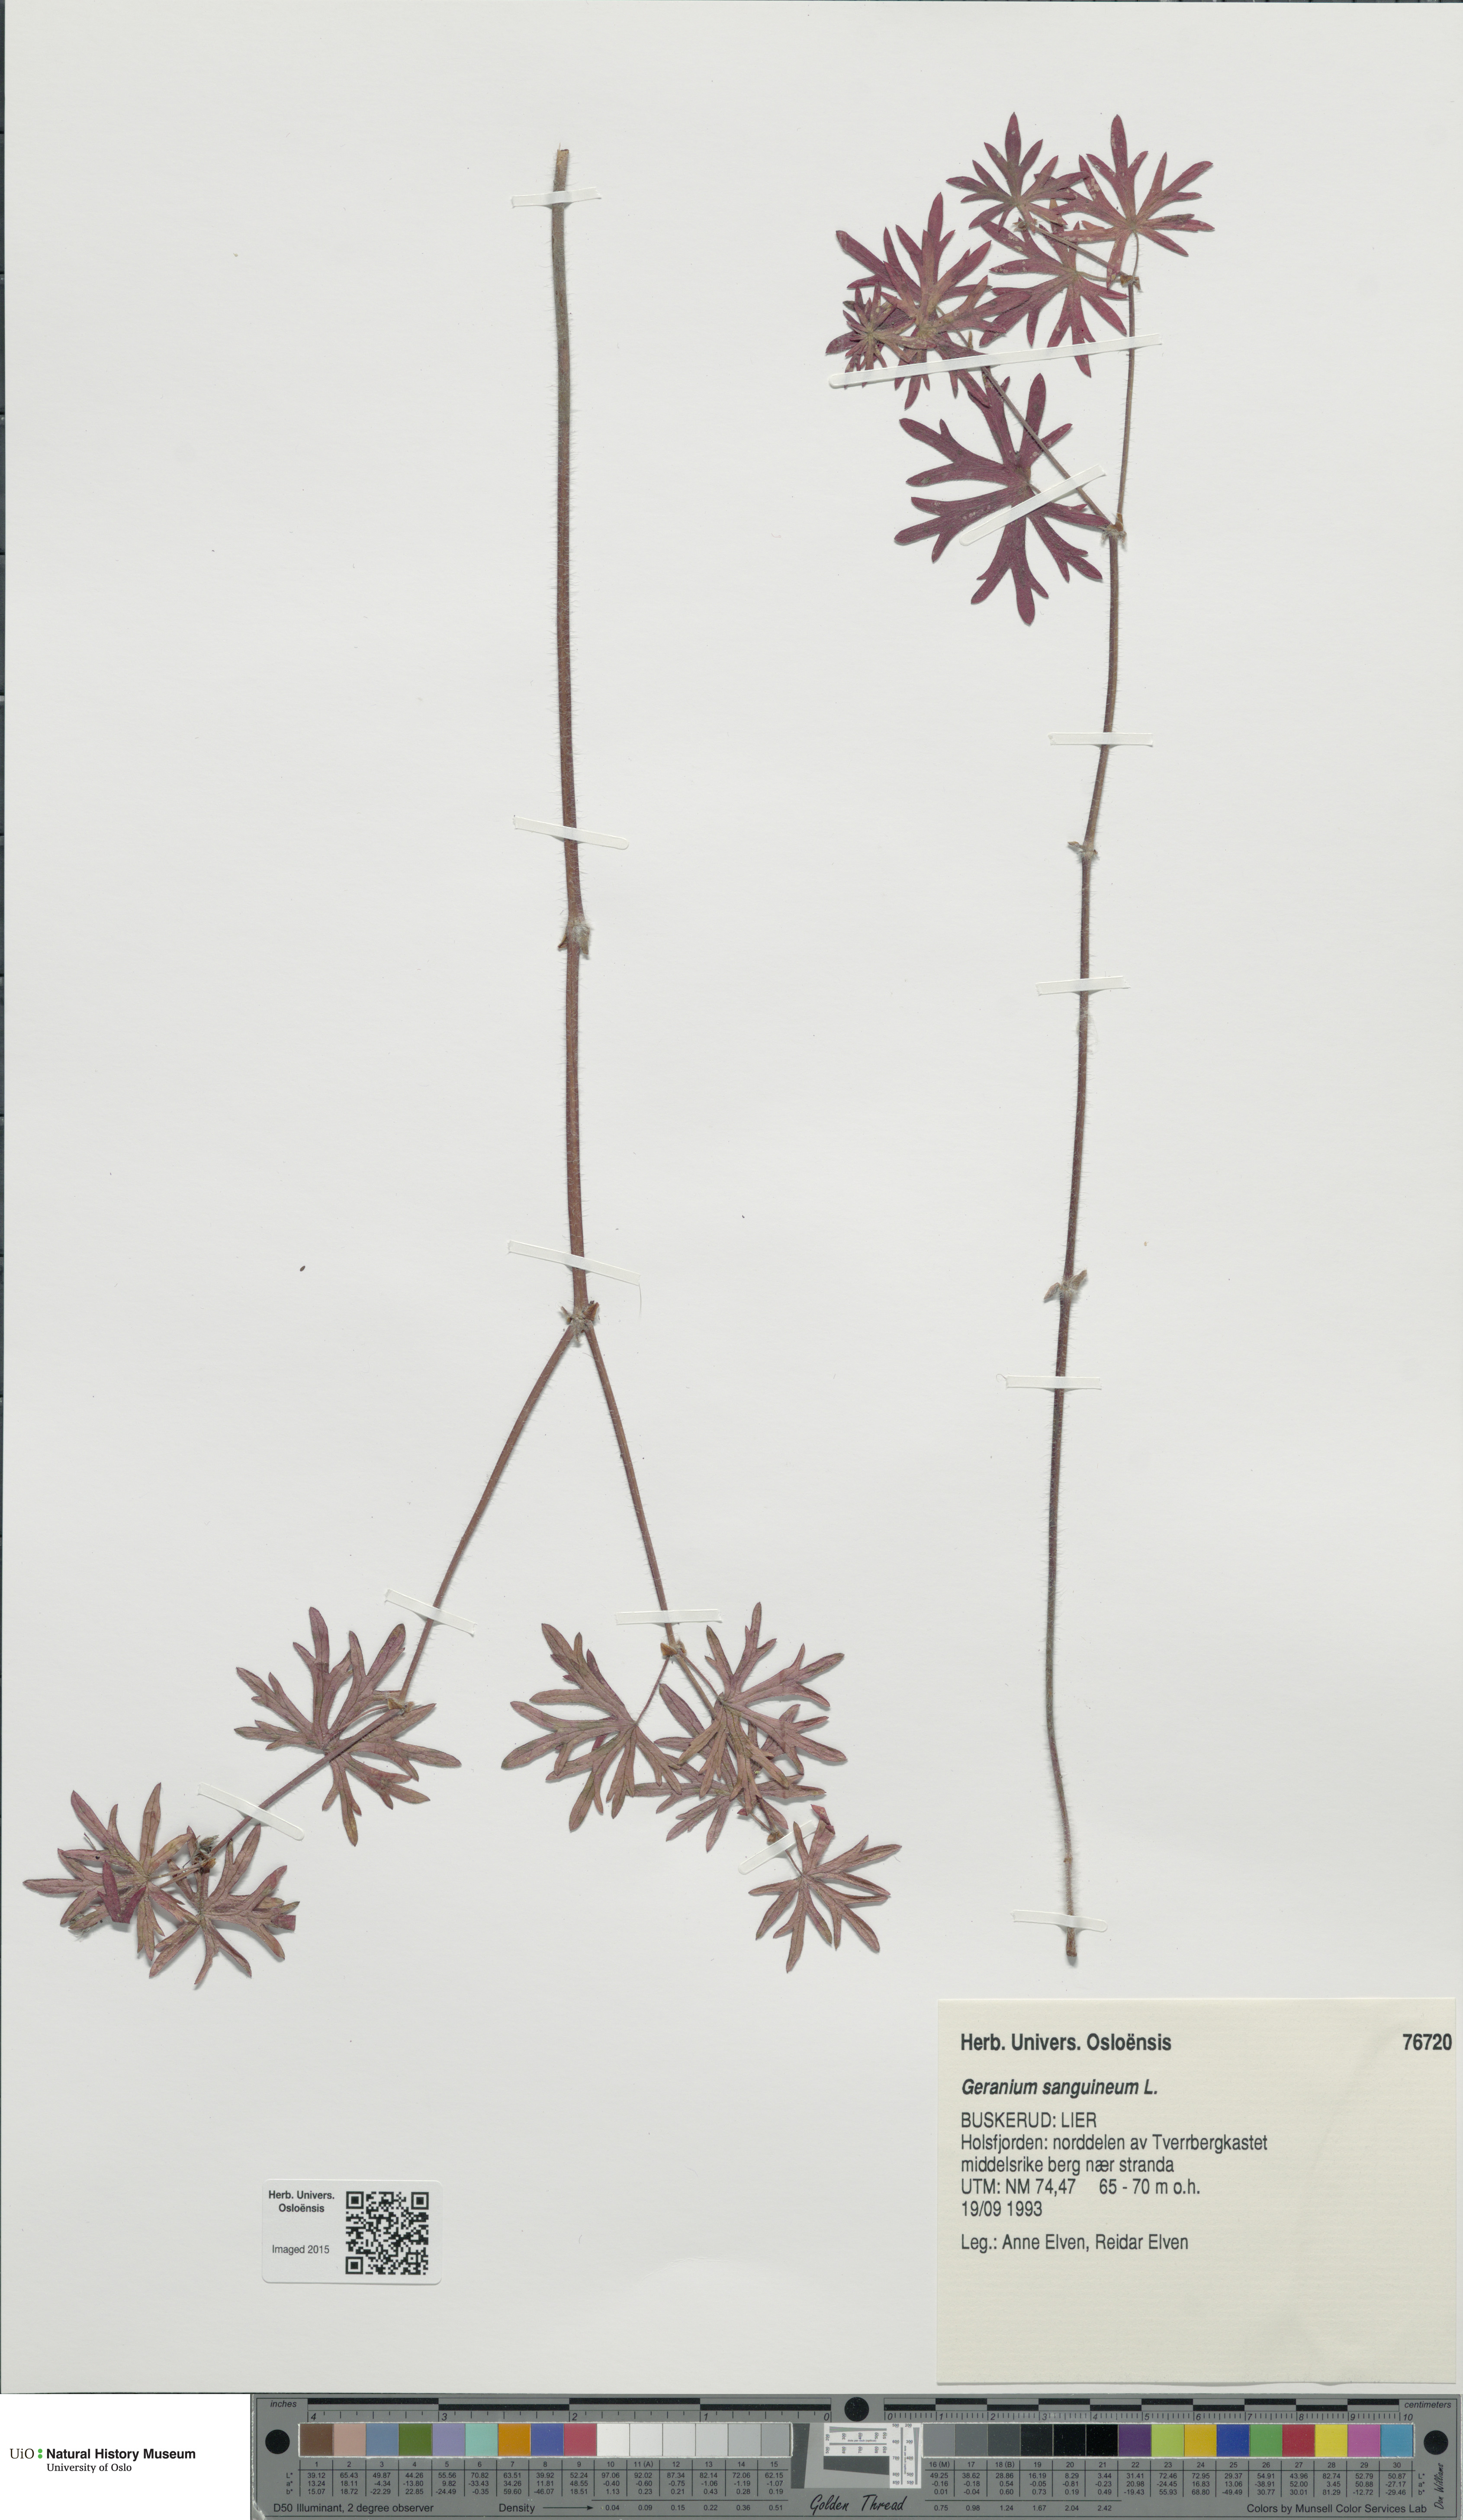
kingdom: Plantae
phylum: Tracheophyta
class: Magnoliopsida
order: Geraniales
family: Geraniaceae
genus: Geranium
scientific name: Geranium sanguineum
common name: Bloody crane's-bill
